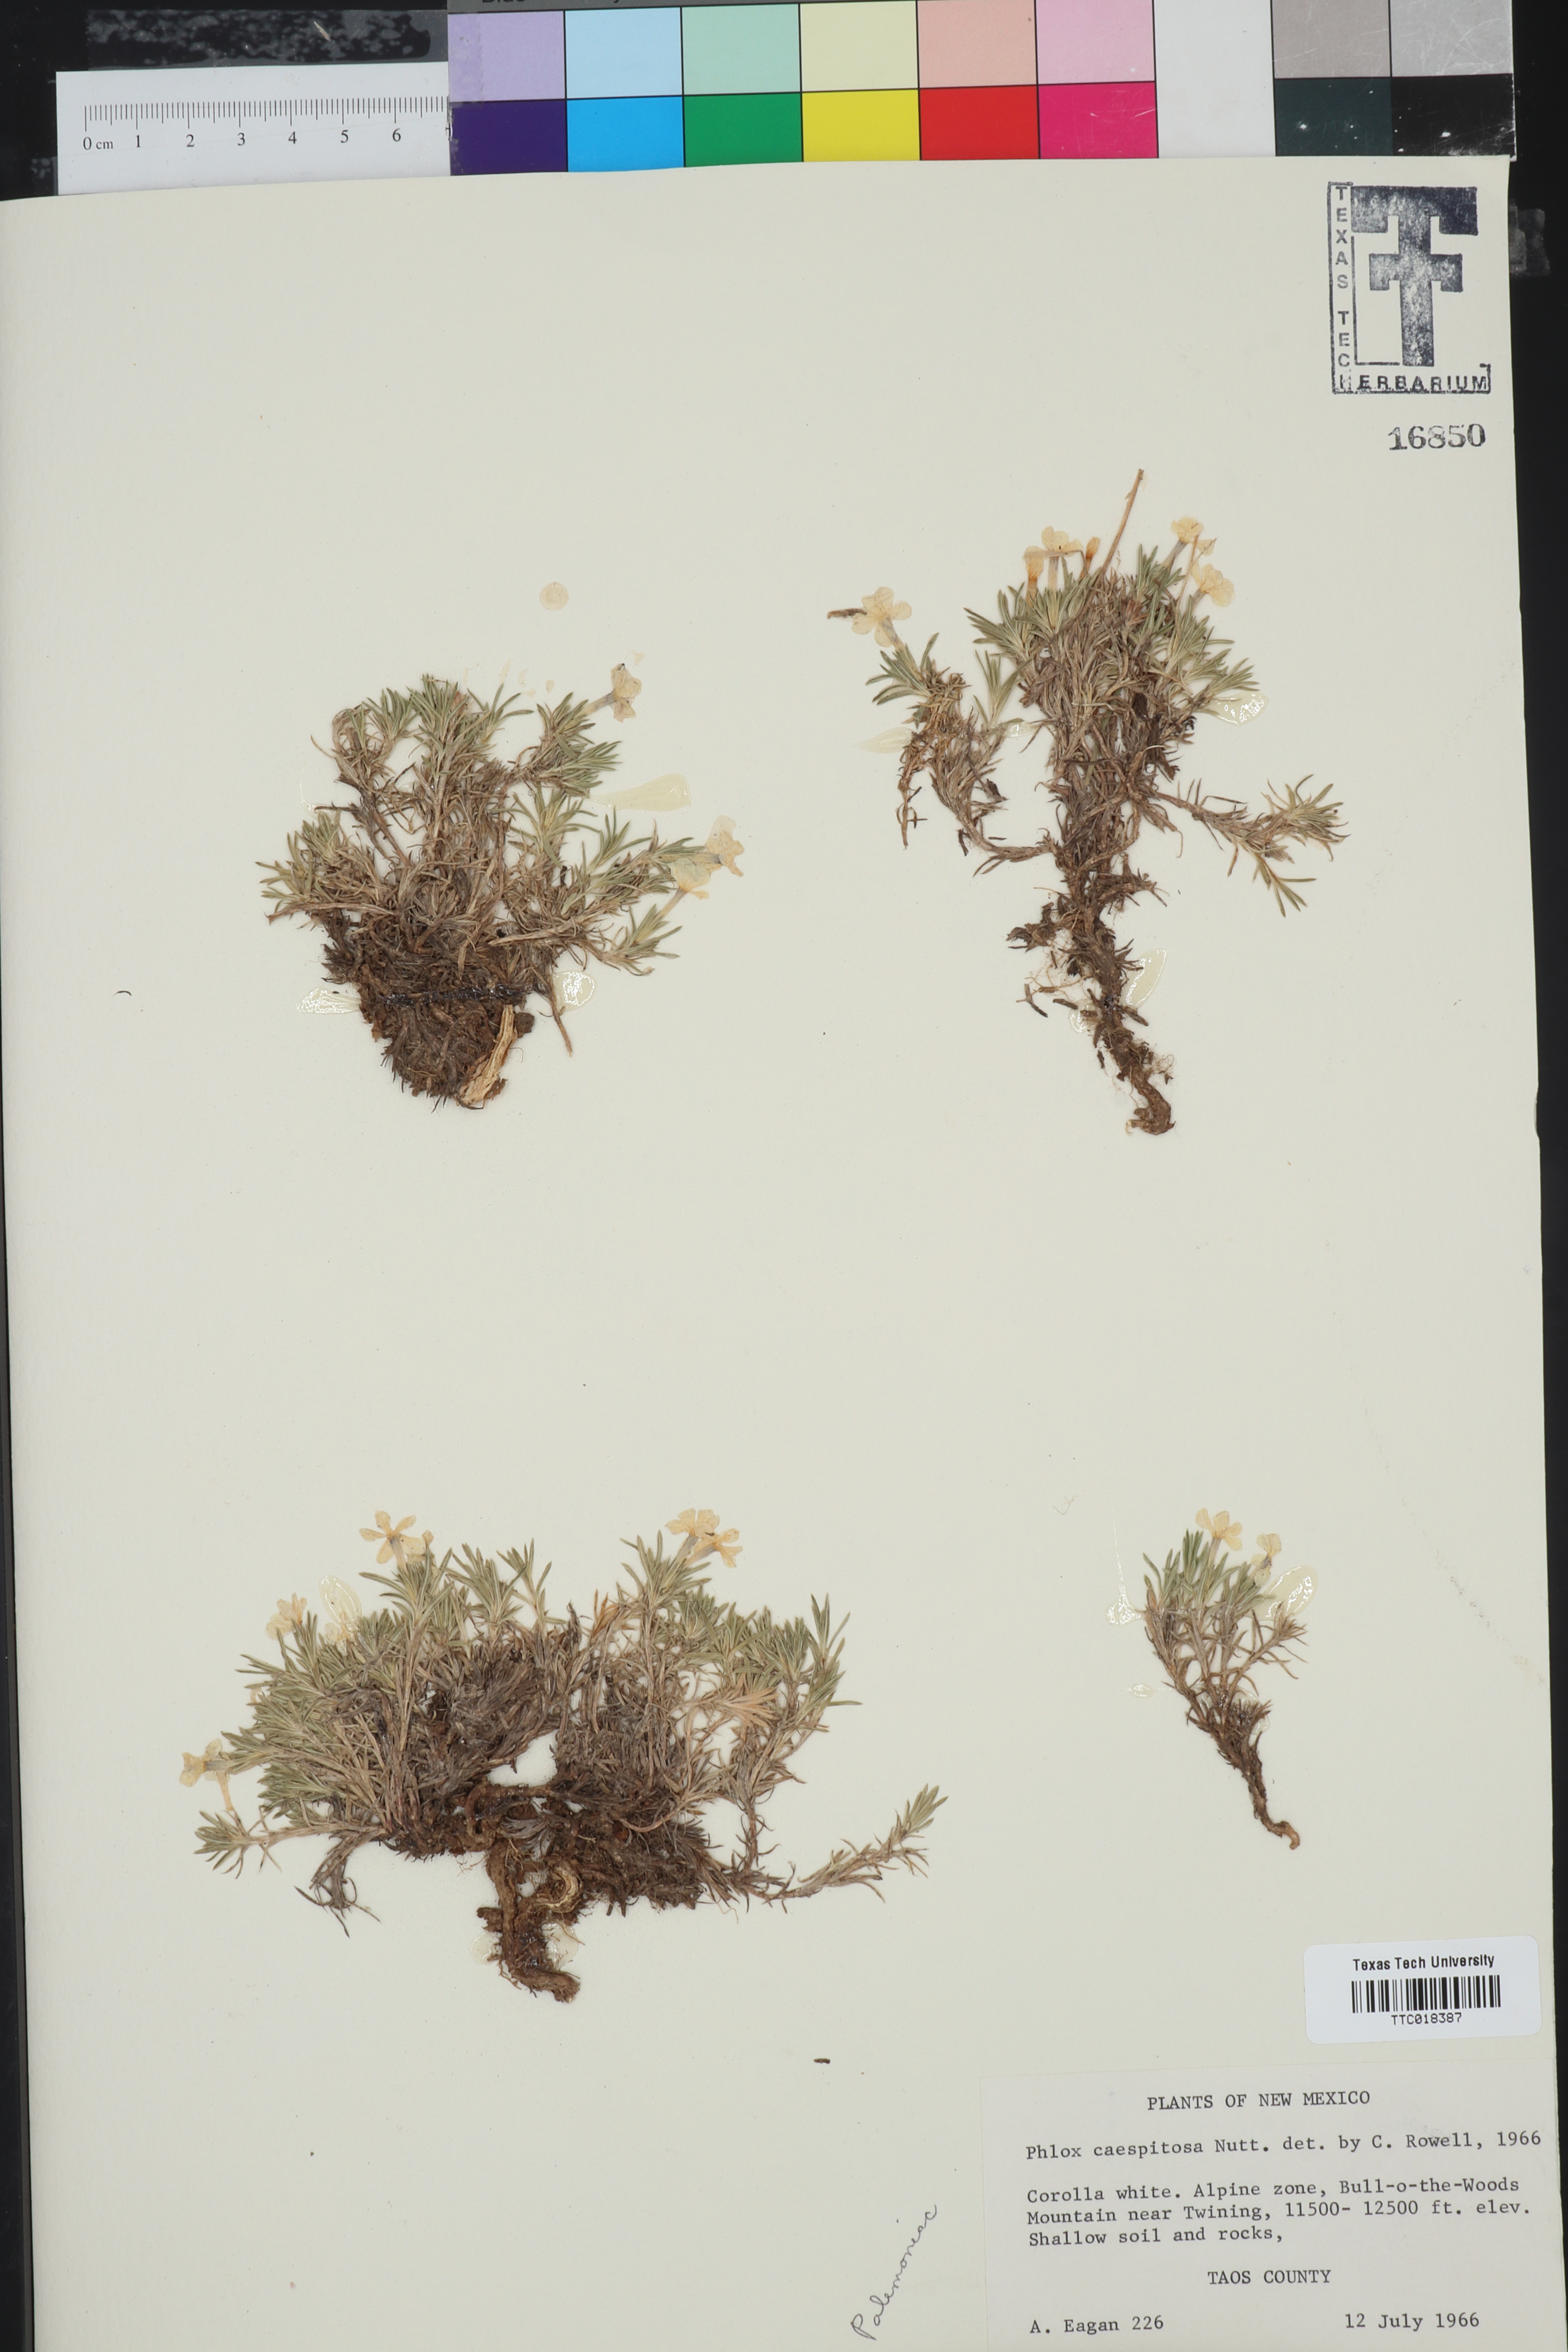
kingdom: Plantae
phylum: Tracheophyta
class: Magnoliopsida
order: Ericales
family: Polemoniaceae
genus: Phlox
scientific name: Phlox caespitosa
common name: Cushion phlox
